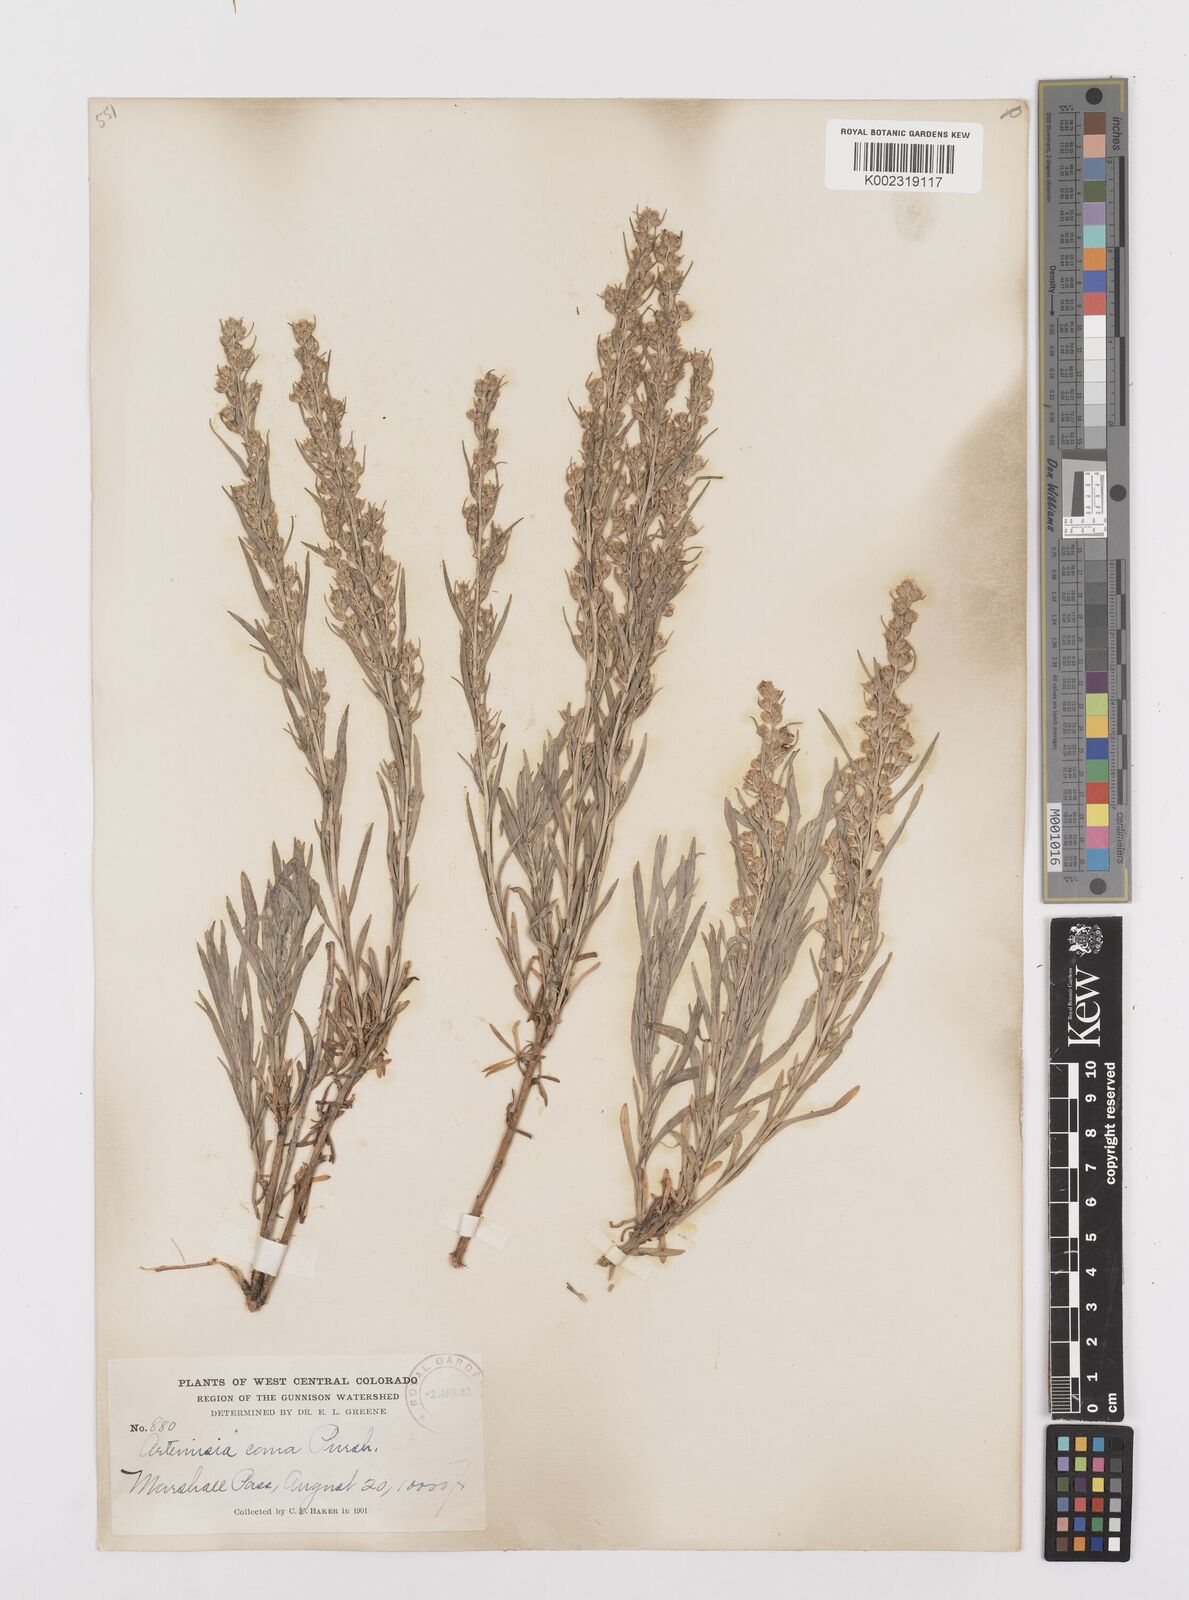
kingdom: Plantae
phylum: Tracheophyta
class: Magnoliopsida
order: Asterales
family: Asteraceae
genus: Artemisia
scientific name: Artemisia cana
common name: Silver sagebrush
